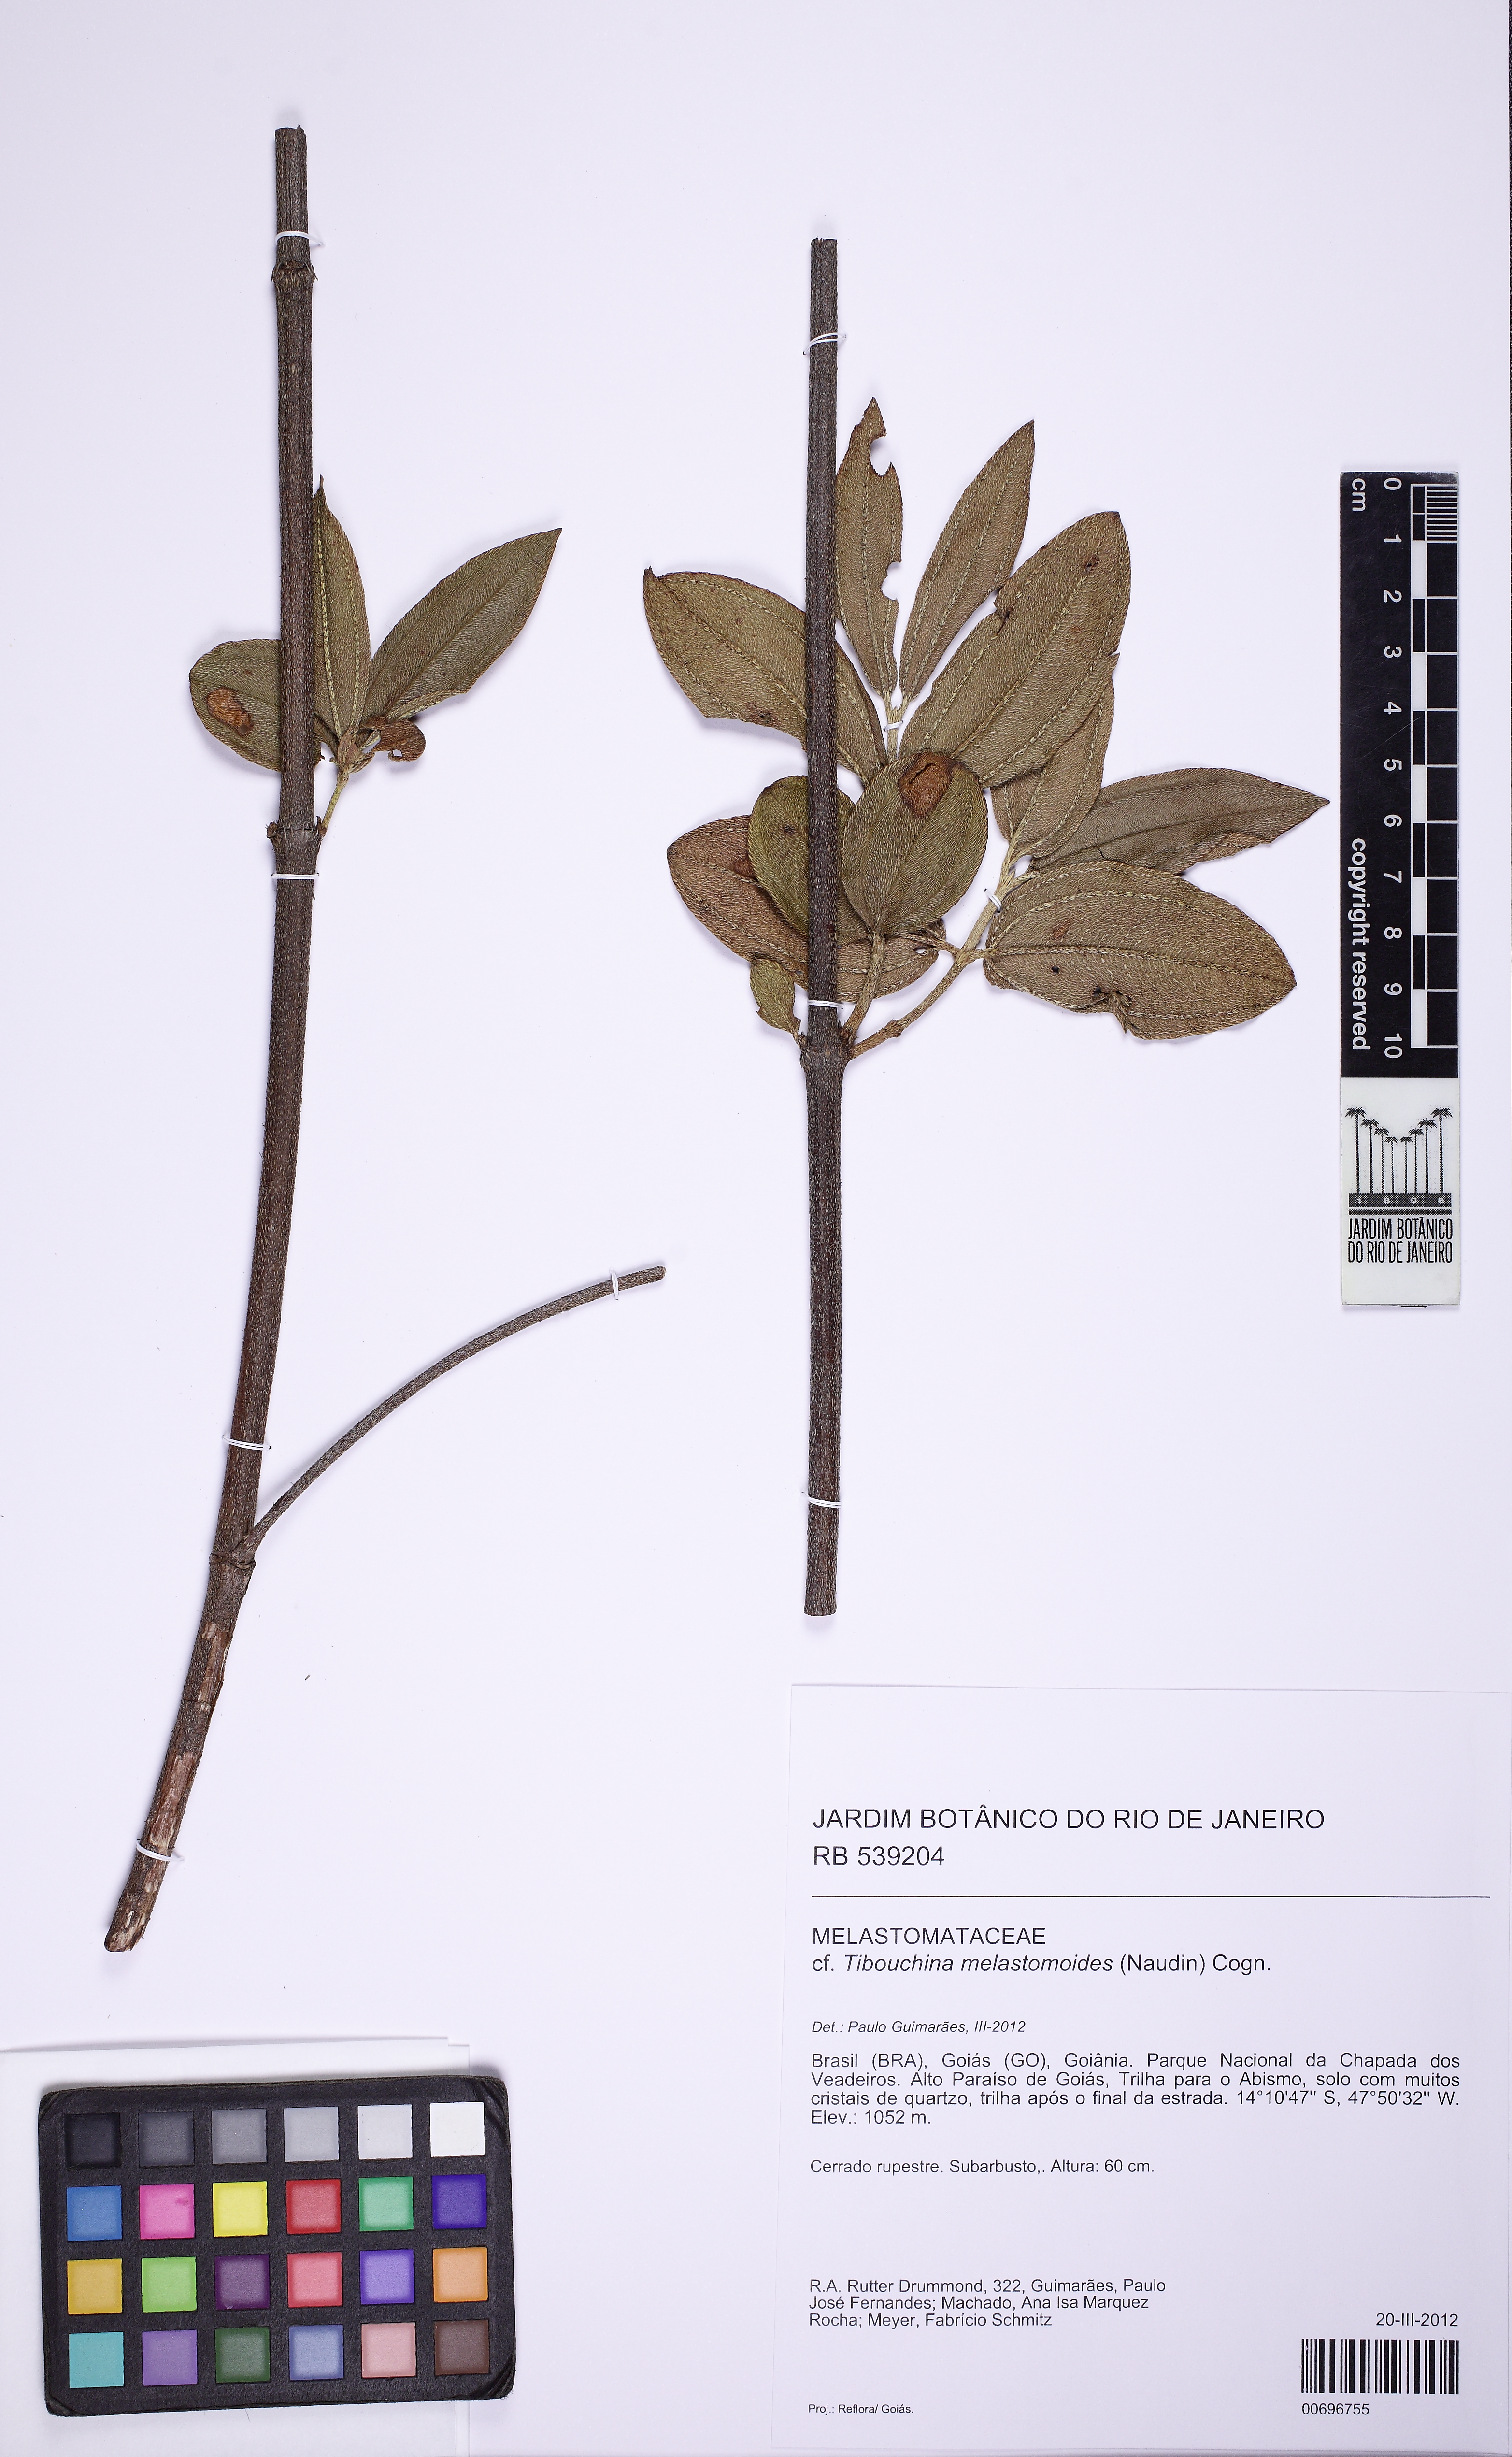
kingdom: Plantae
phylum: Tracheophyta
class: Magnoliopsida
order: Myrtales
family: Melastomataceae
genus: Pleroma
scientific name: Pleroma melastomoides
